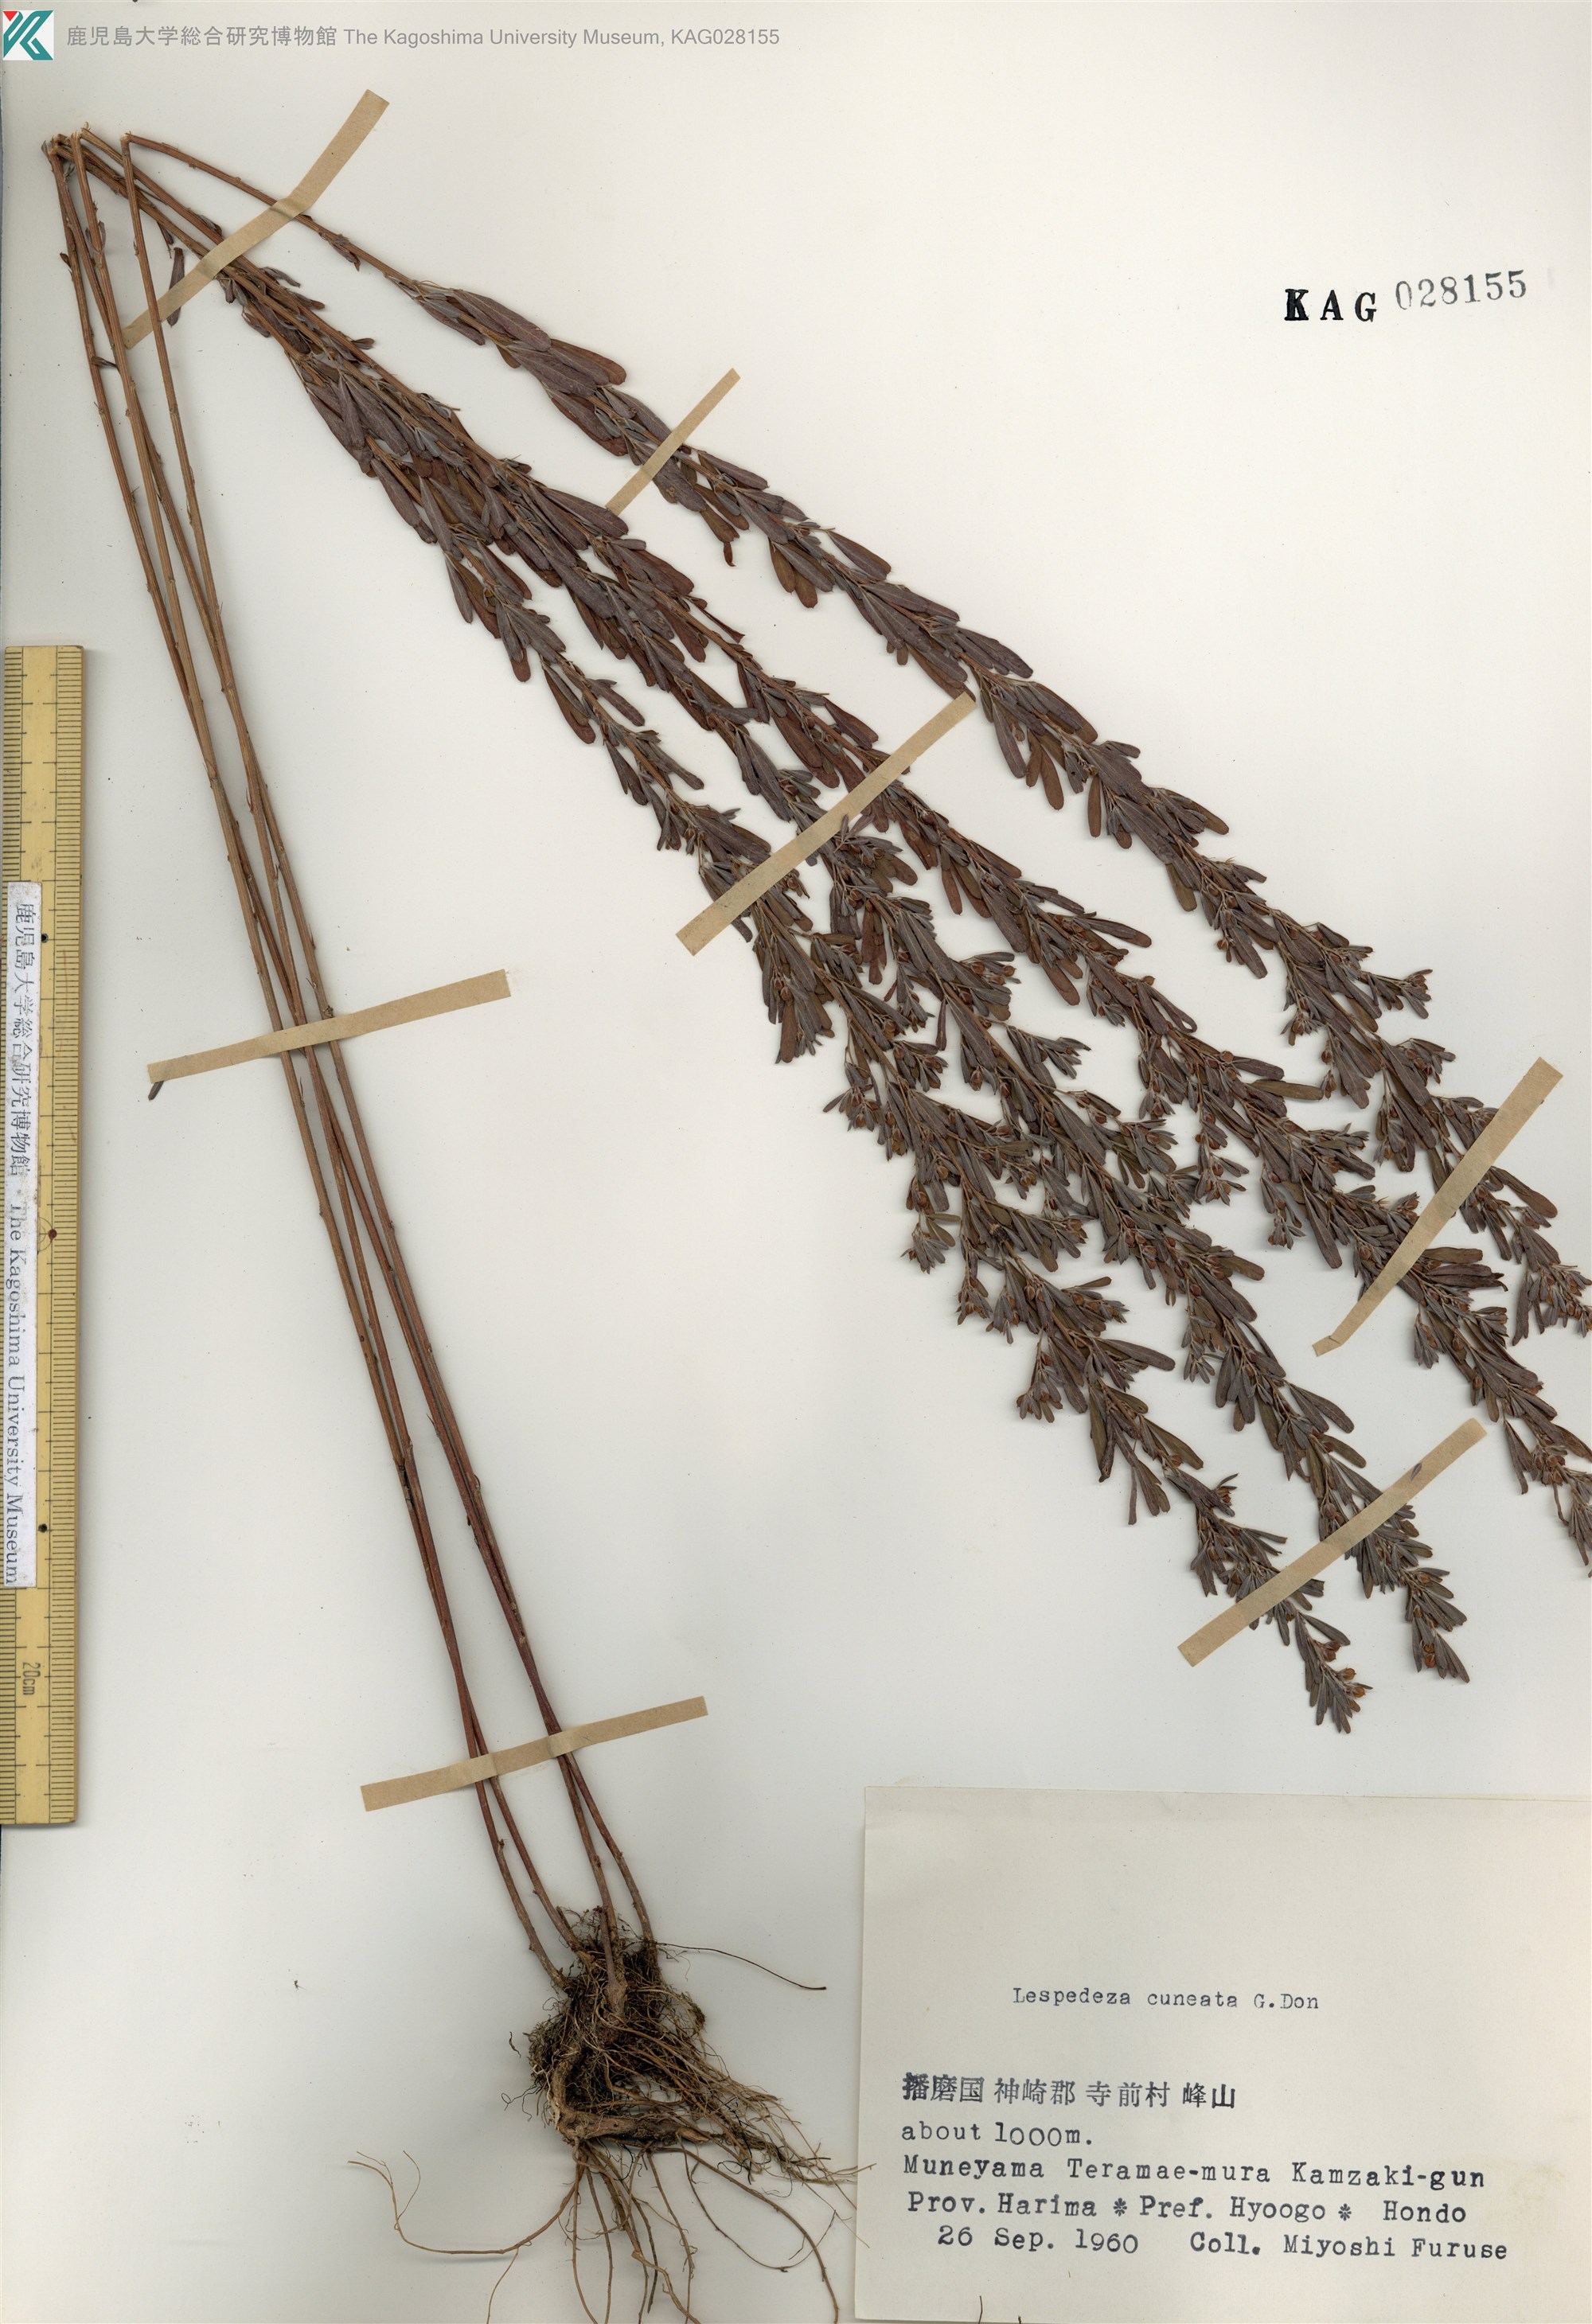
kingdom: Plantae
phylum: Tracheophyta
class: Magnoliopsida
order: Fabales
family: Fabaceae
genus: Lespedeza
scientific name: Lespedeza cuneata
